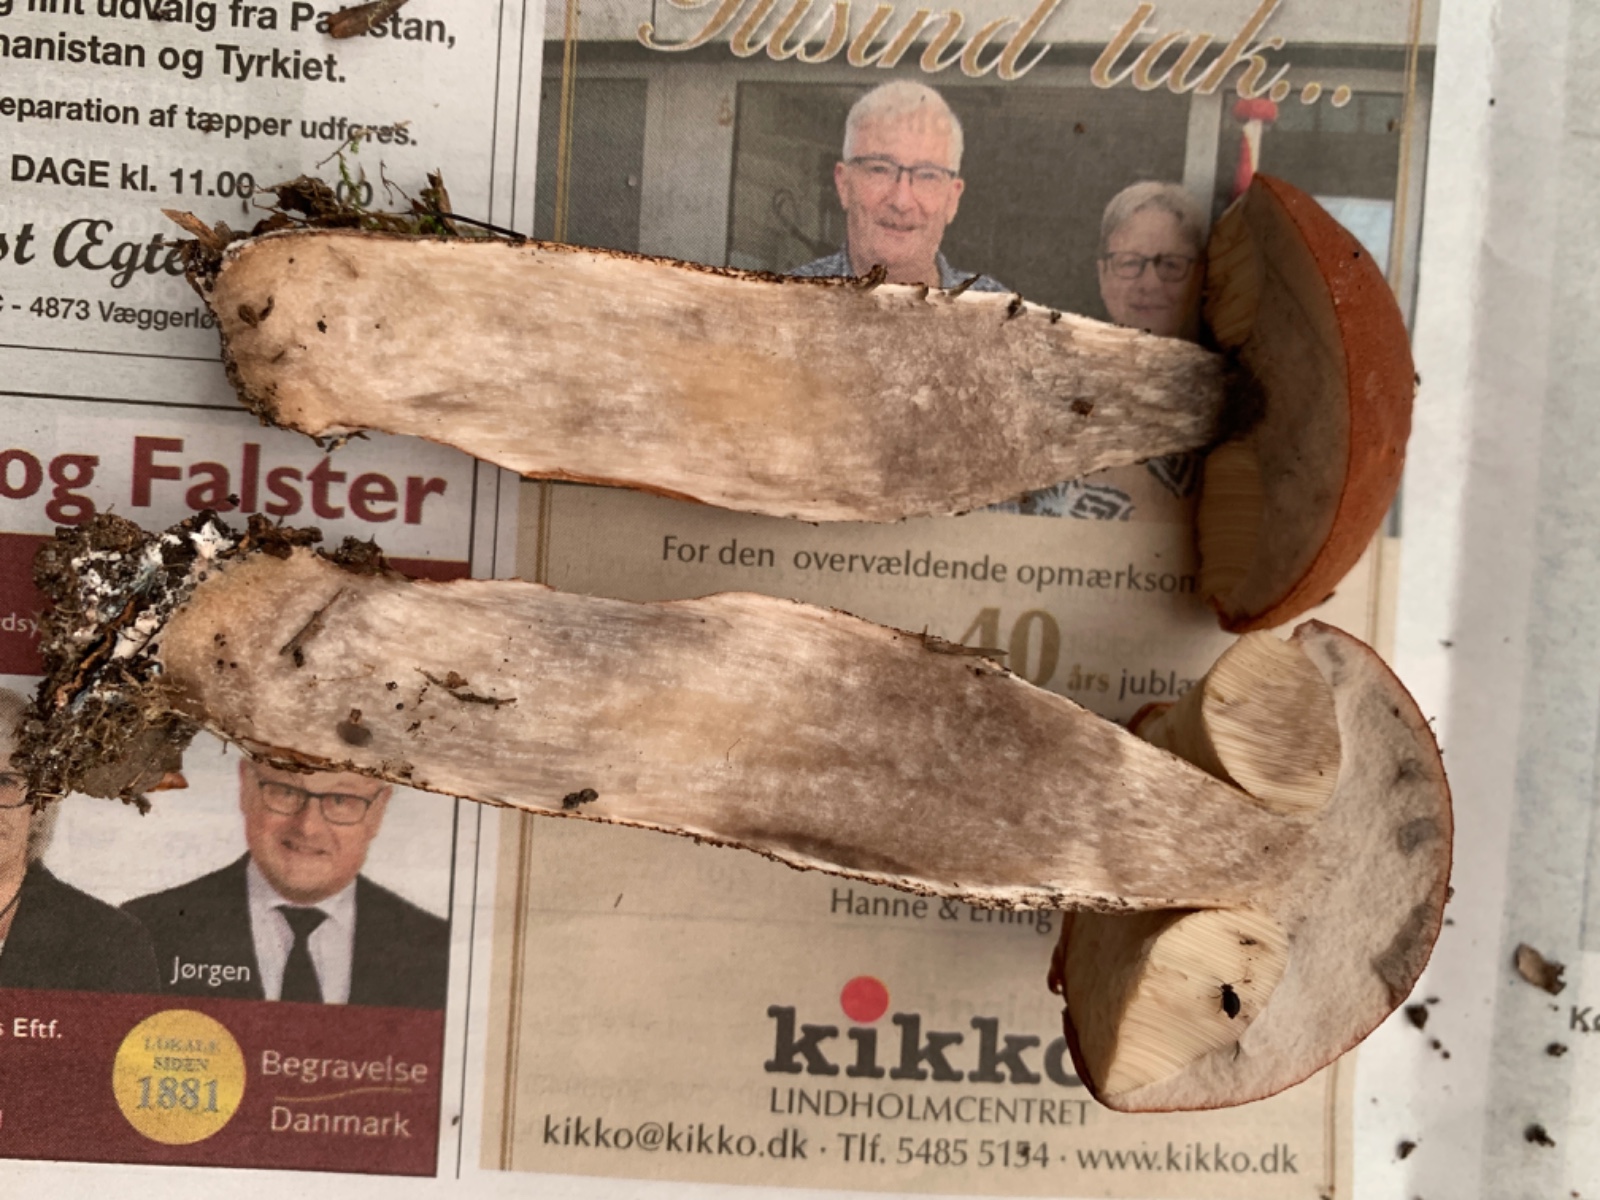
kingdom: Fungi
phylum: Basidiomycota
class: Agaricomycetes
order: Boletales
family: Boletaceae
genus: Leccinum
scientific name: Leccinum aurantiacum
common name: rustrød skælrørhat
